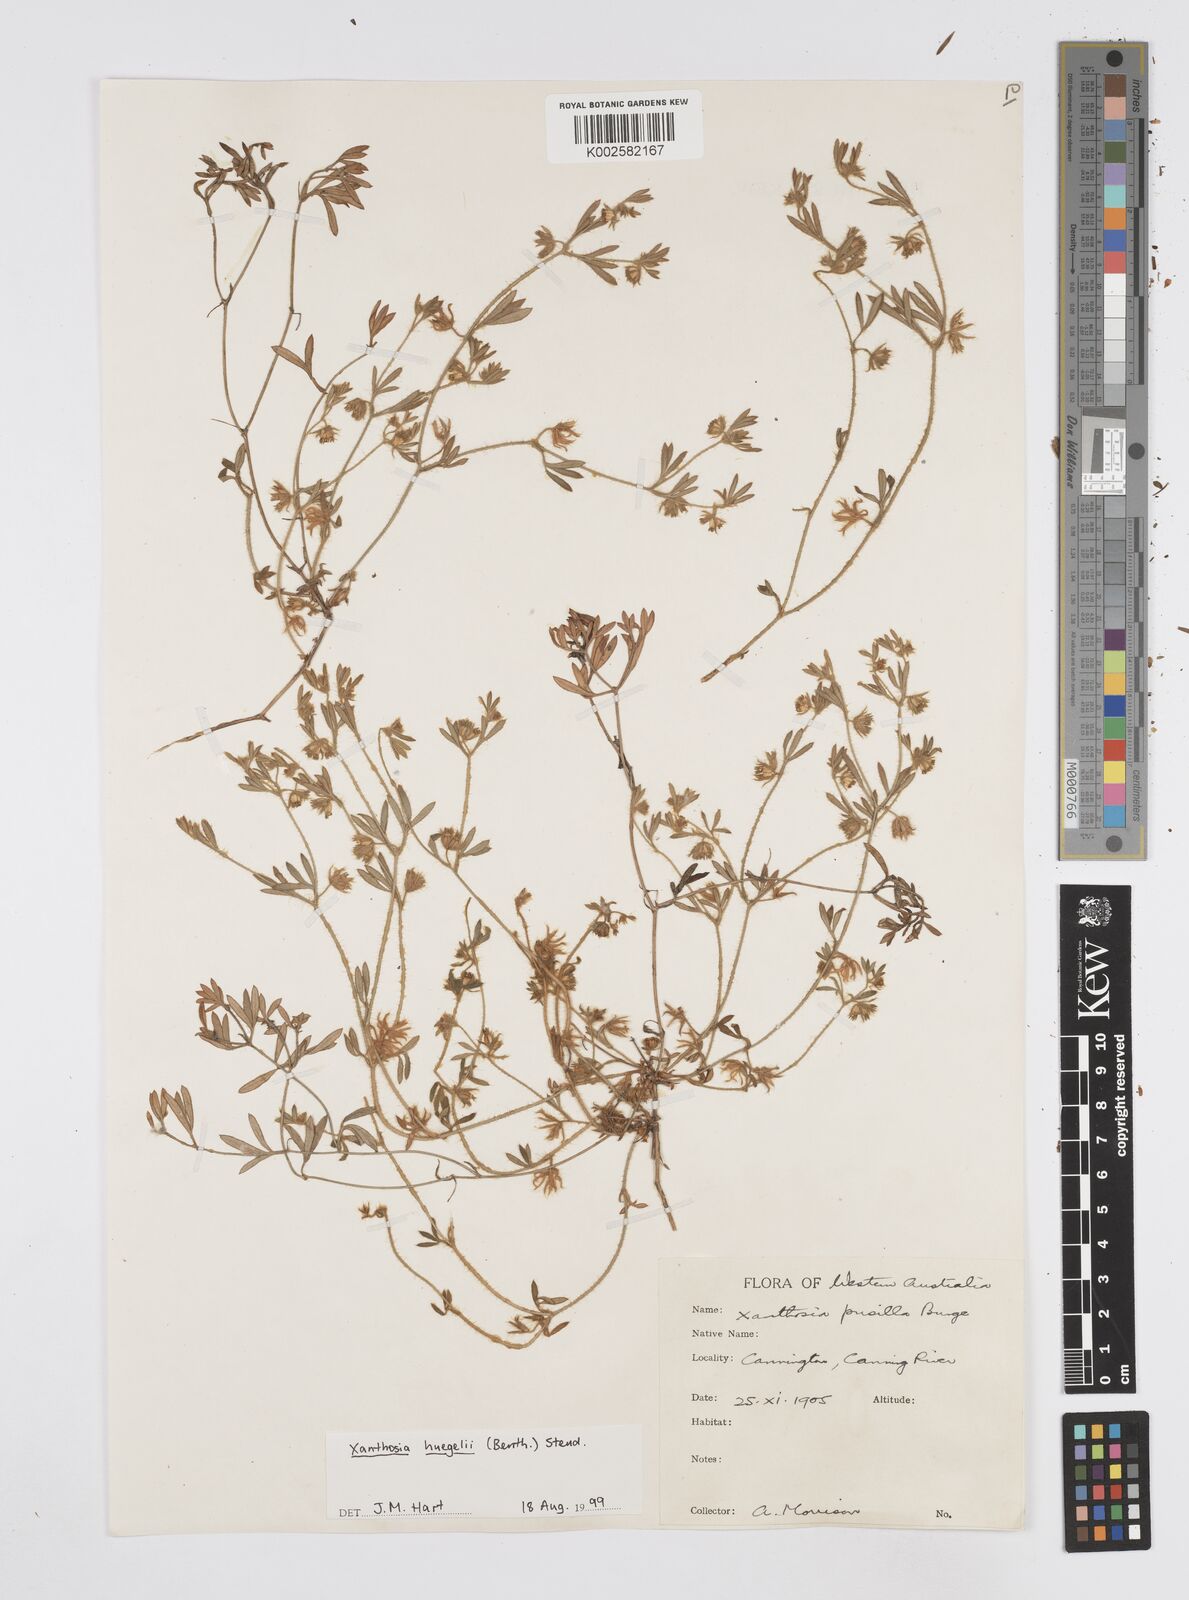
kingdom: Plantae
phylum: Tracheophyta
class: Magnoliopsida
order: Apiales
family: Apiaceae
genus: Xanthosia
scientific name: Xanthosia huegelii
